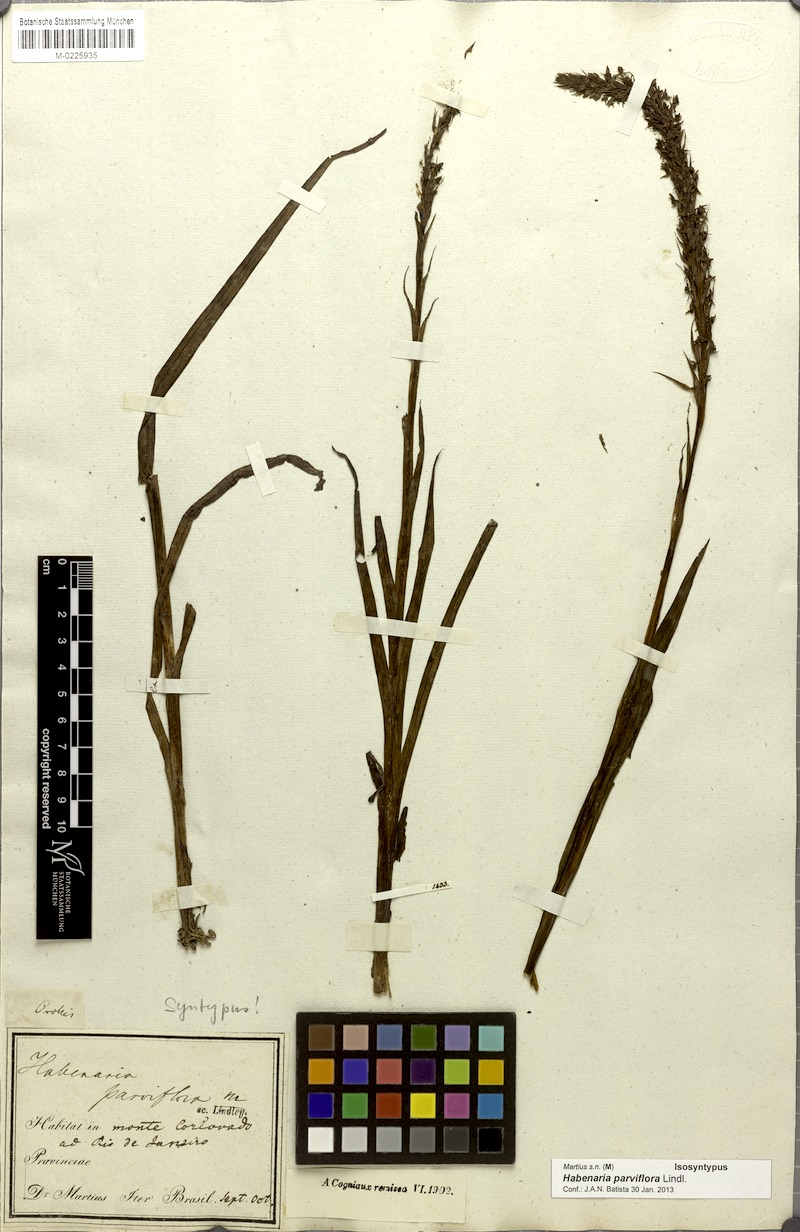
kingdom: Plantae
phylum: Tracheophyta
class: Liliopsida
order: Asparagales
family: Orchidaceae
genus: Habenaria
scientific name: Habenaria parviflora
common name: Small flowered habenaria
